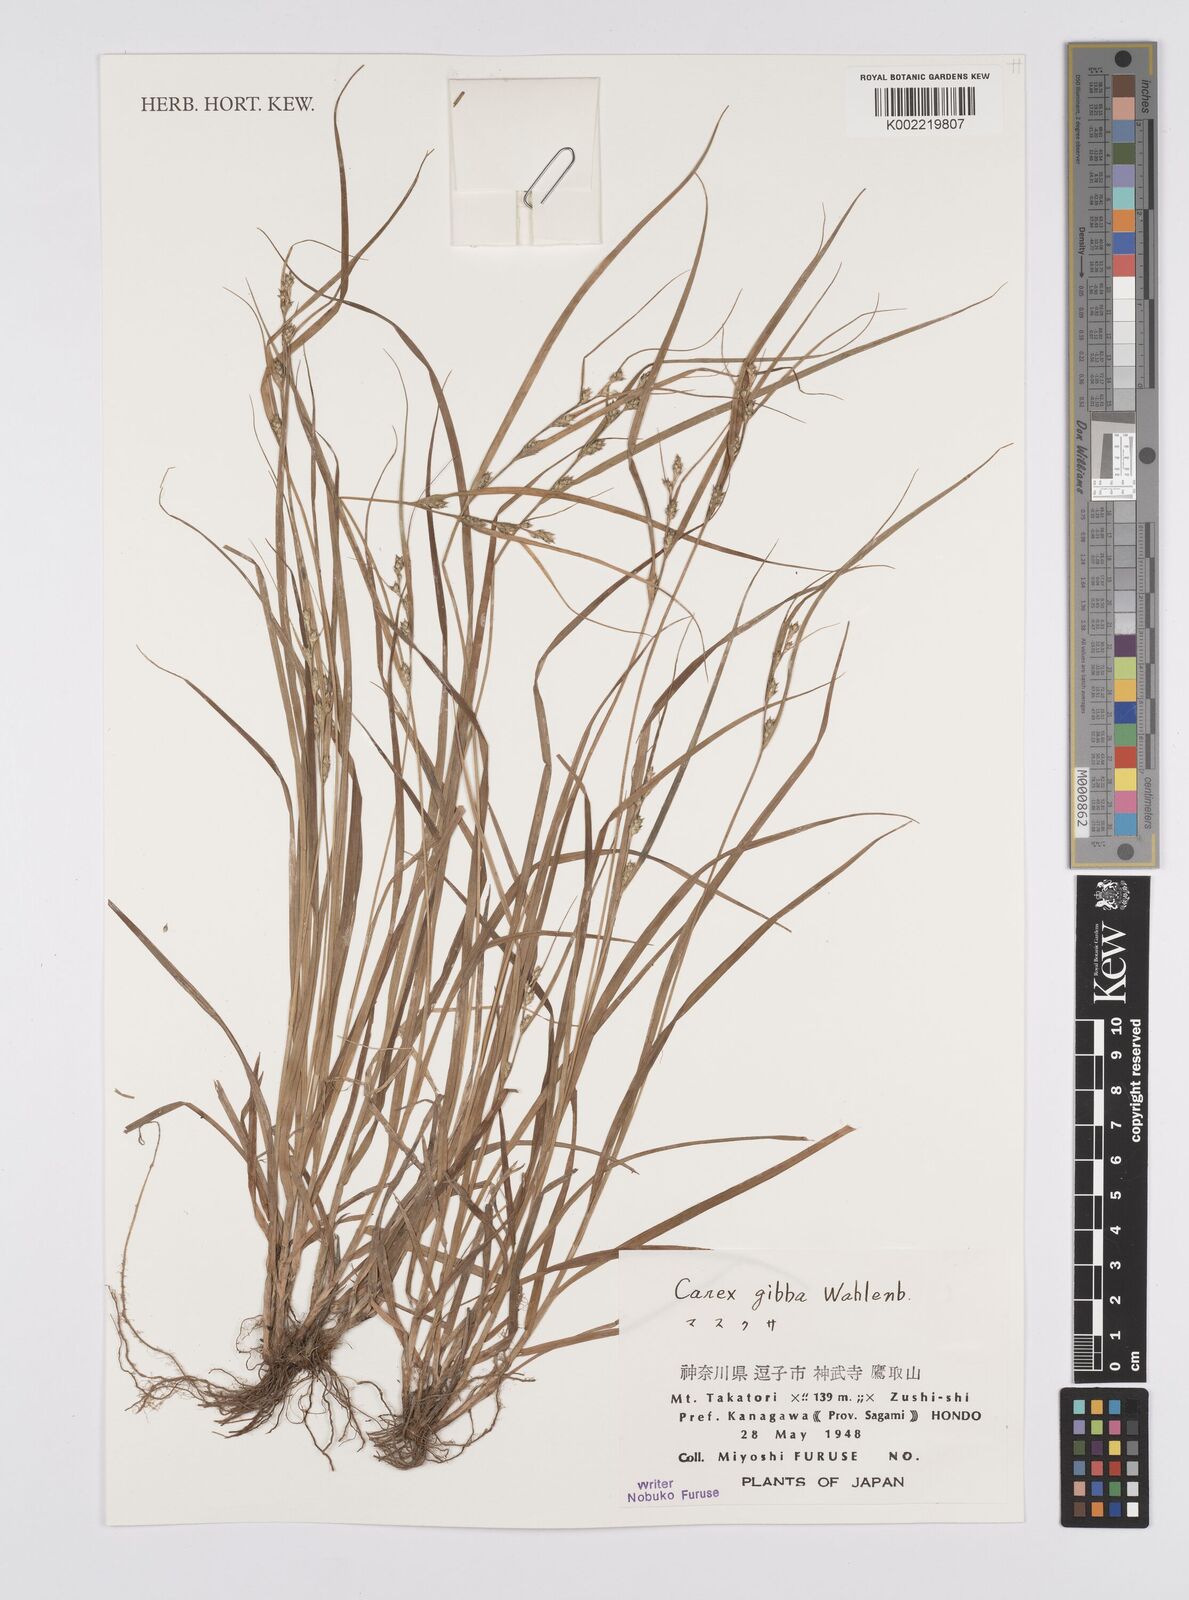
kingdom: Plantae
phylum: Tracheophyta
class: Liliopsida
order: Poales
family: Cyperaceae
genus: Carex
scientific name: Carex gibba
